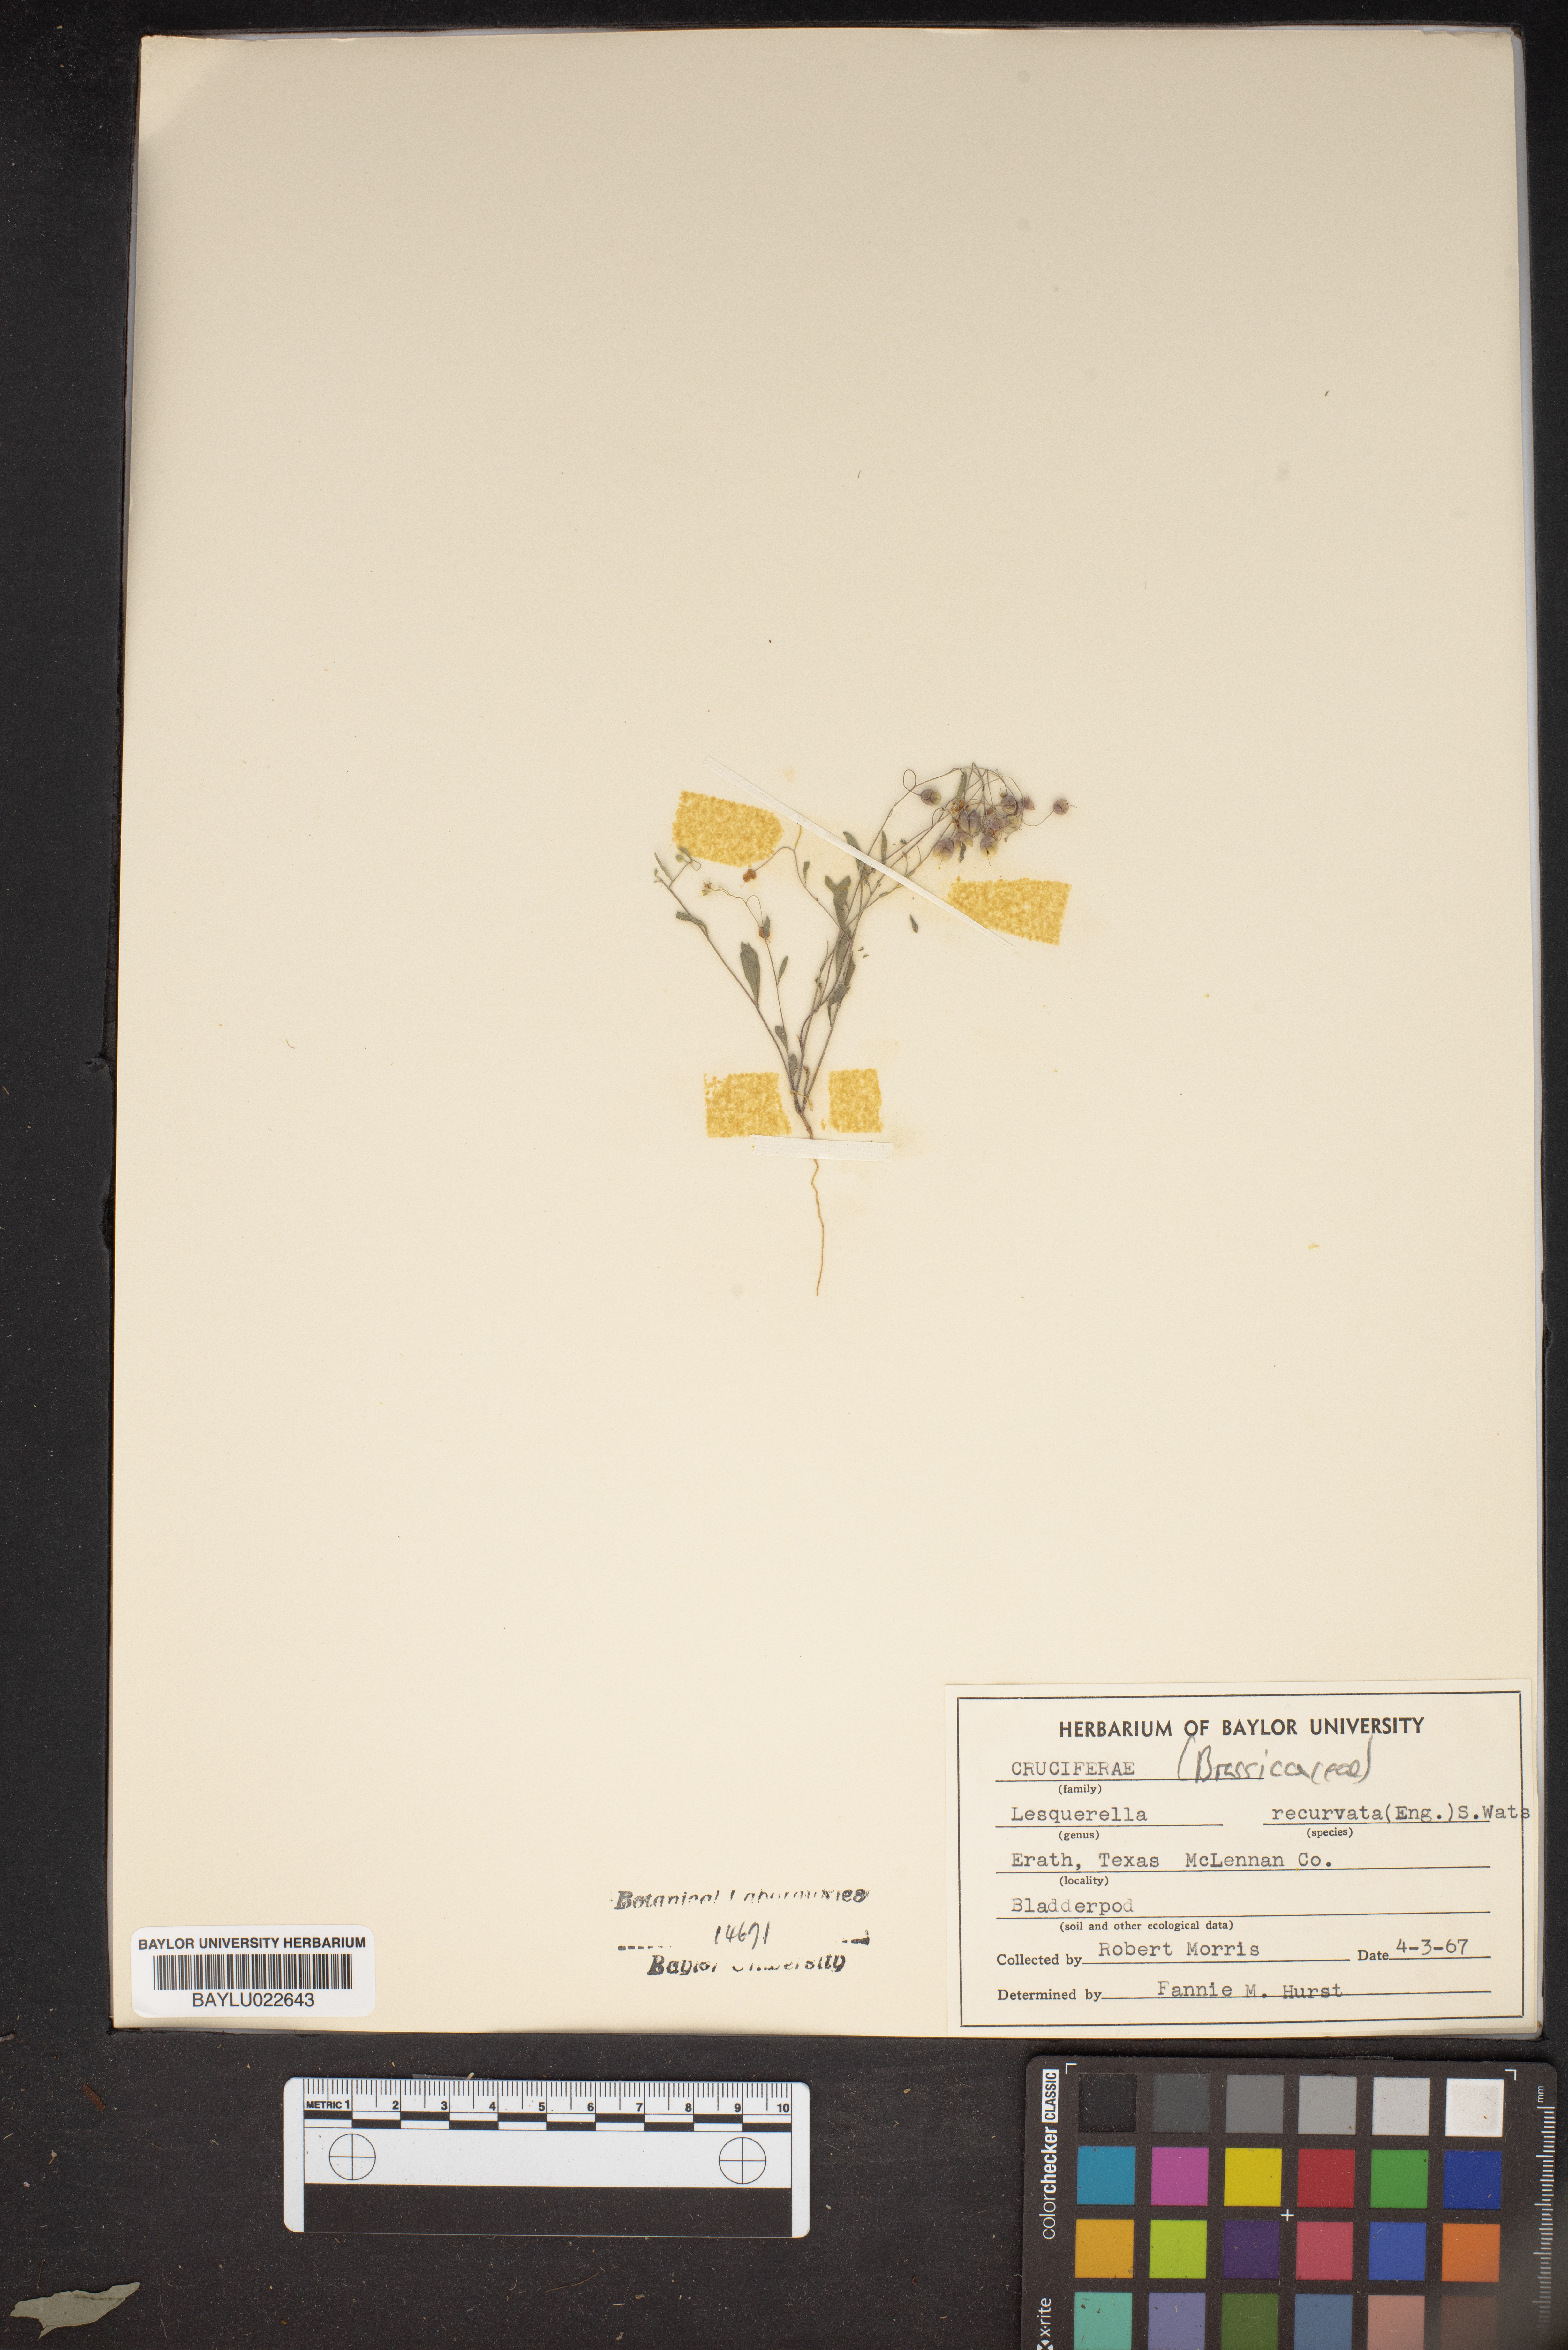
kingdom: Plantae
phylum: Tracheophyta
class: Magnoliopsida
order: Brassicales
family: Brassicaceae
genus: Physaria
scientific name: Physaria recurvata
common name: Gaslight bladderpod
